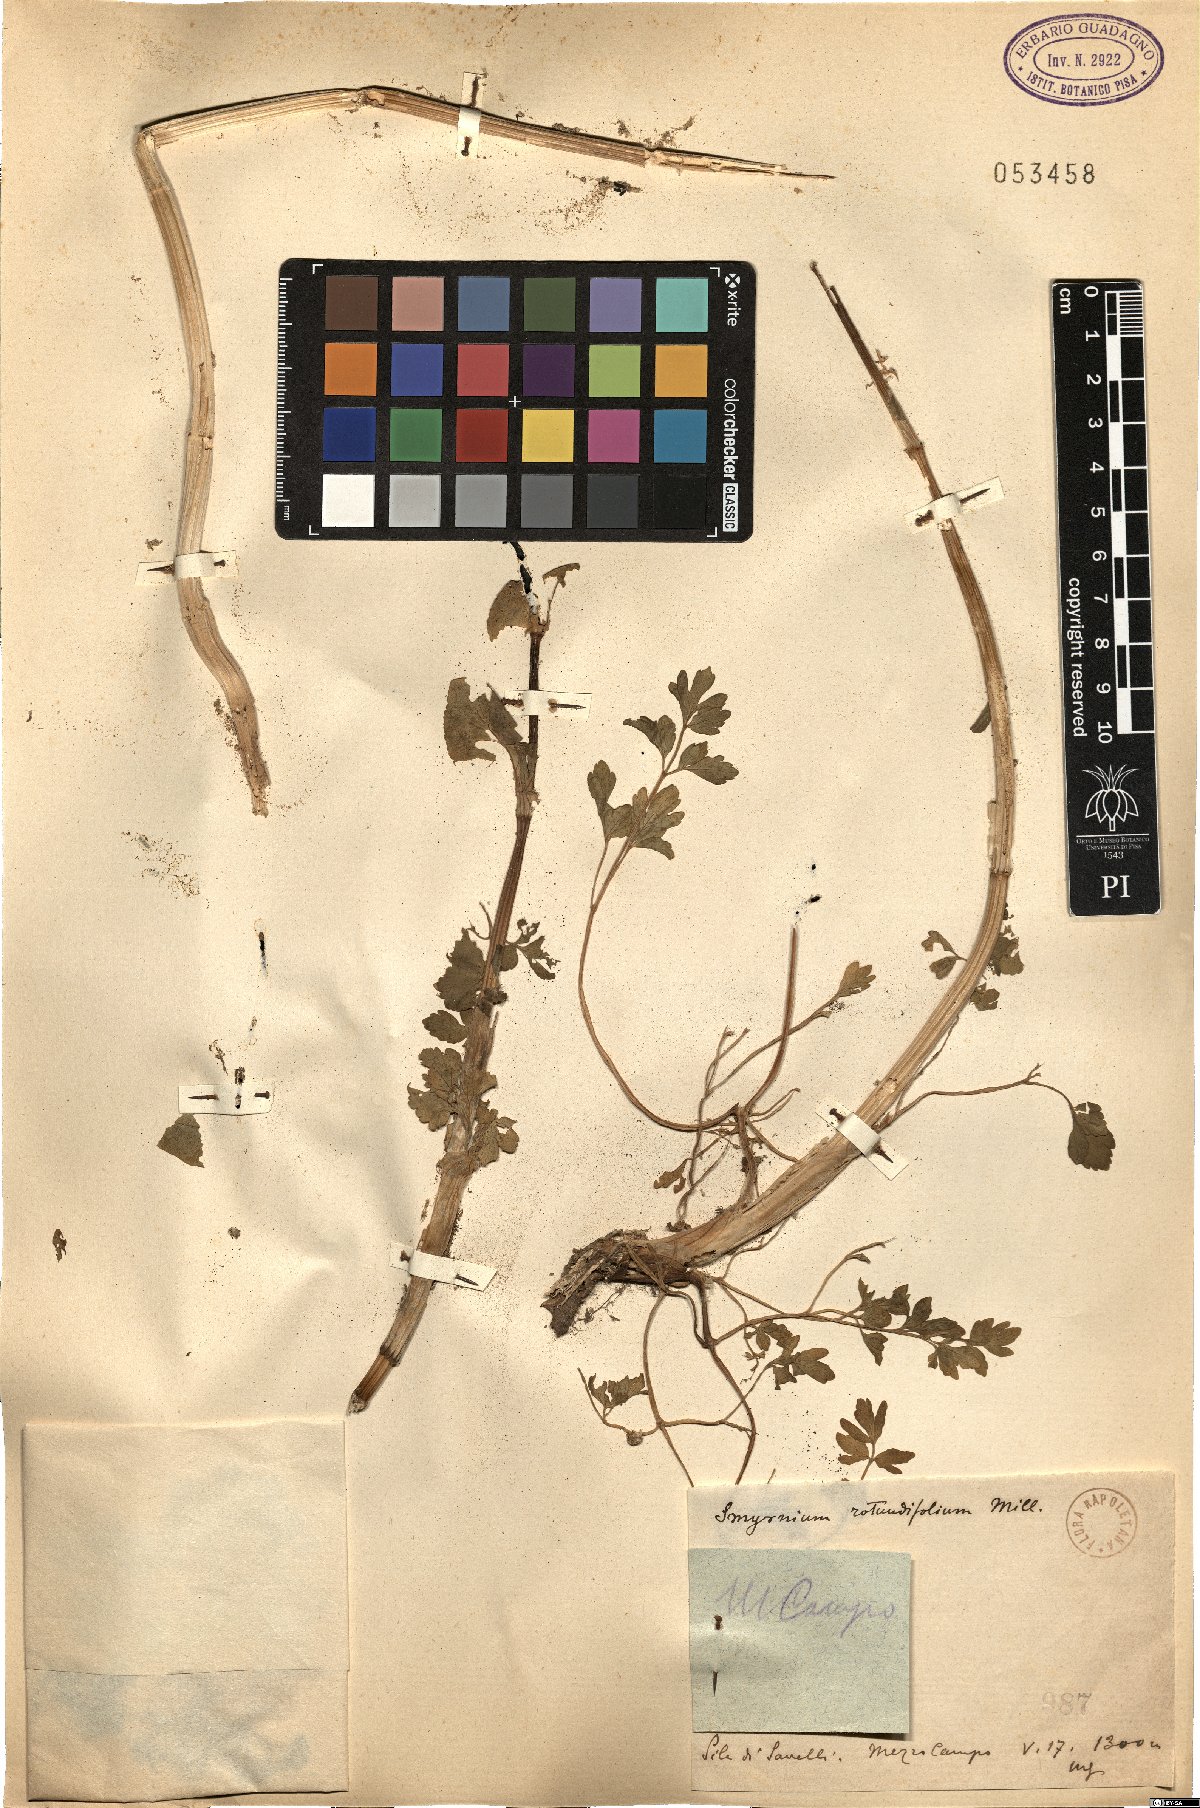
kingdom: Plantae
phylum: Tracheophyta
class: Magnoliopsida
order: Apiales
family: Apiaceae
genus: Smyrnium
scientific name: Smyrnium perfoliatum
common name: Perfoliate alexanders
